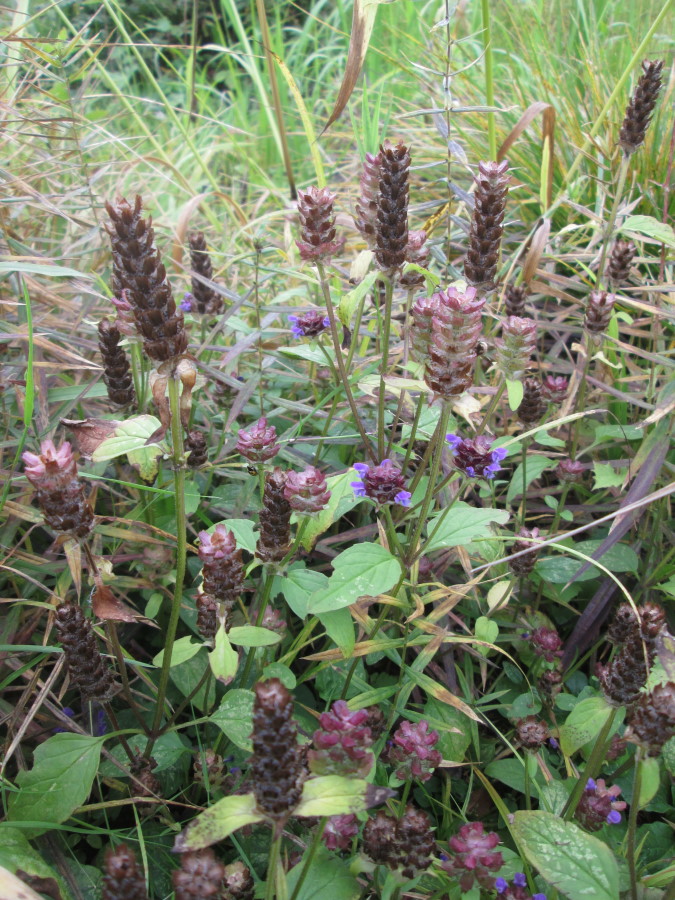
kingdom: Plantae
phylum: Tracheophyta
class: Magnoliopsida
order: Lamiales
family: Lamiaceae
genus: Prunella
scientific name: Prunella vulgaris
